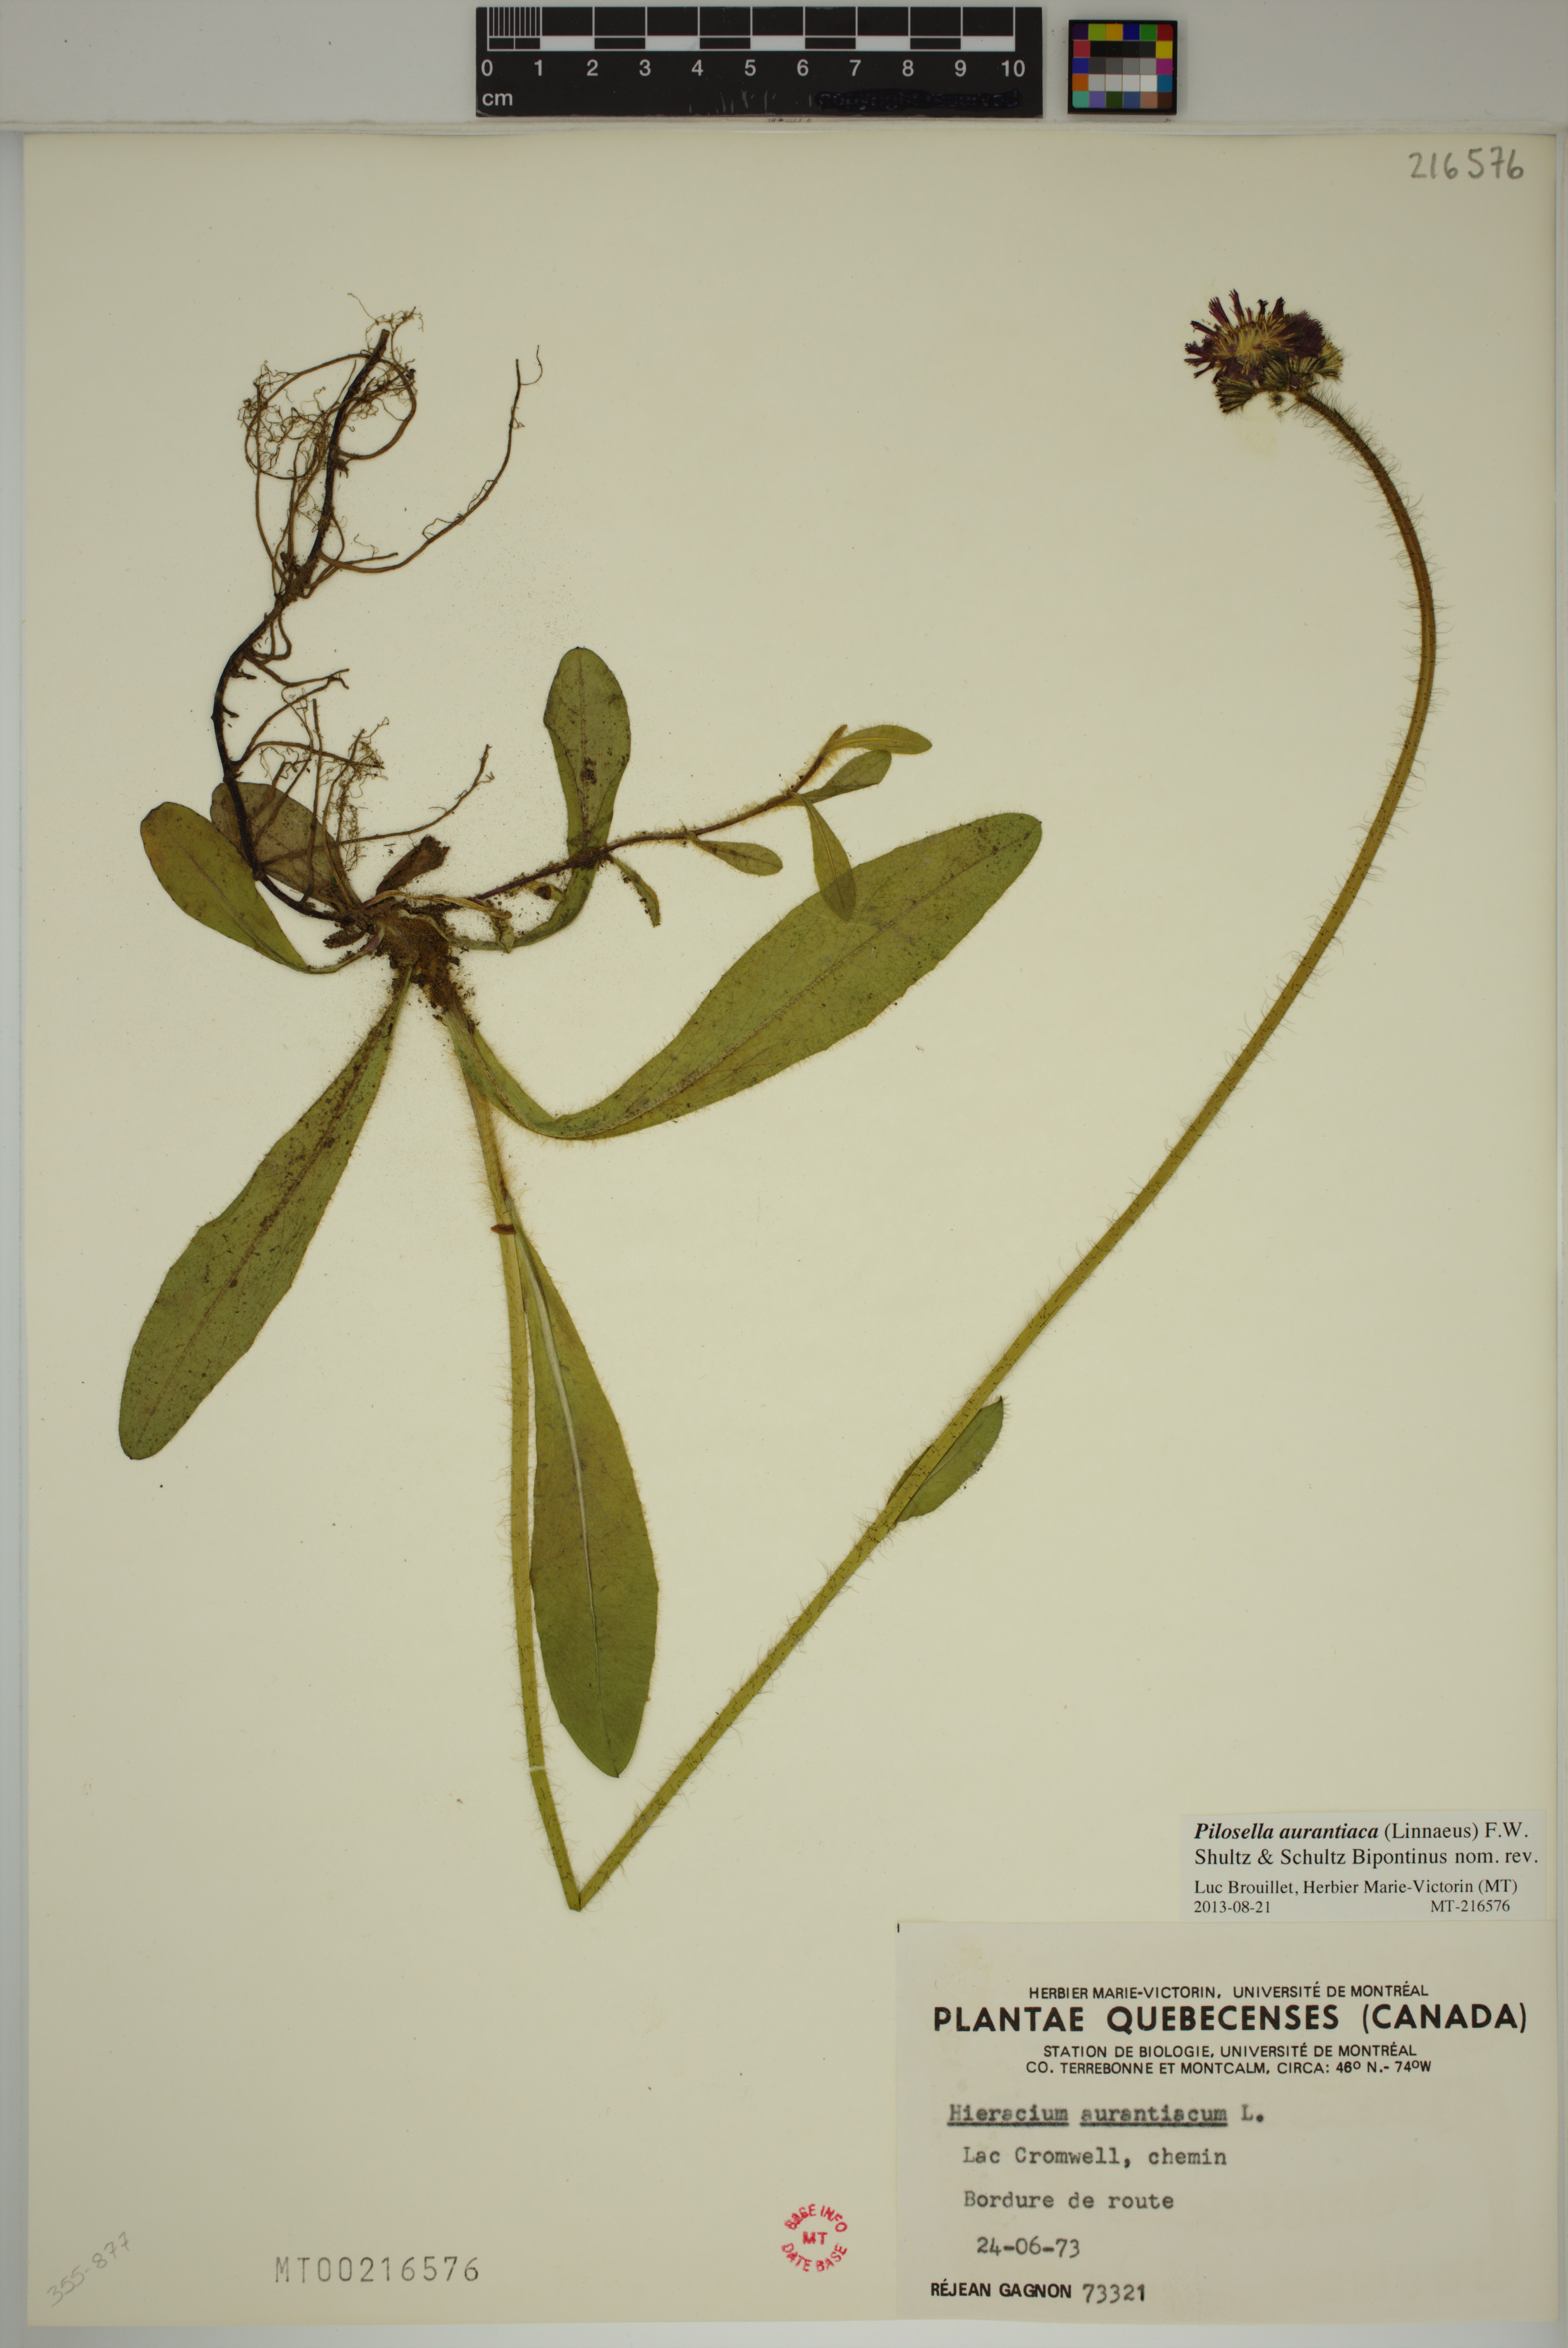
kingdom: Plantae
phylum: Tracheophyta
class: Magnoliopsida
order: Asterales
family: Asteraceae
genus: Pilosella
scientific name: Pilosella aurantiaca
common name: Fox-and-cubs
